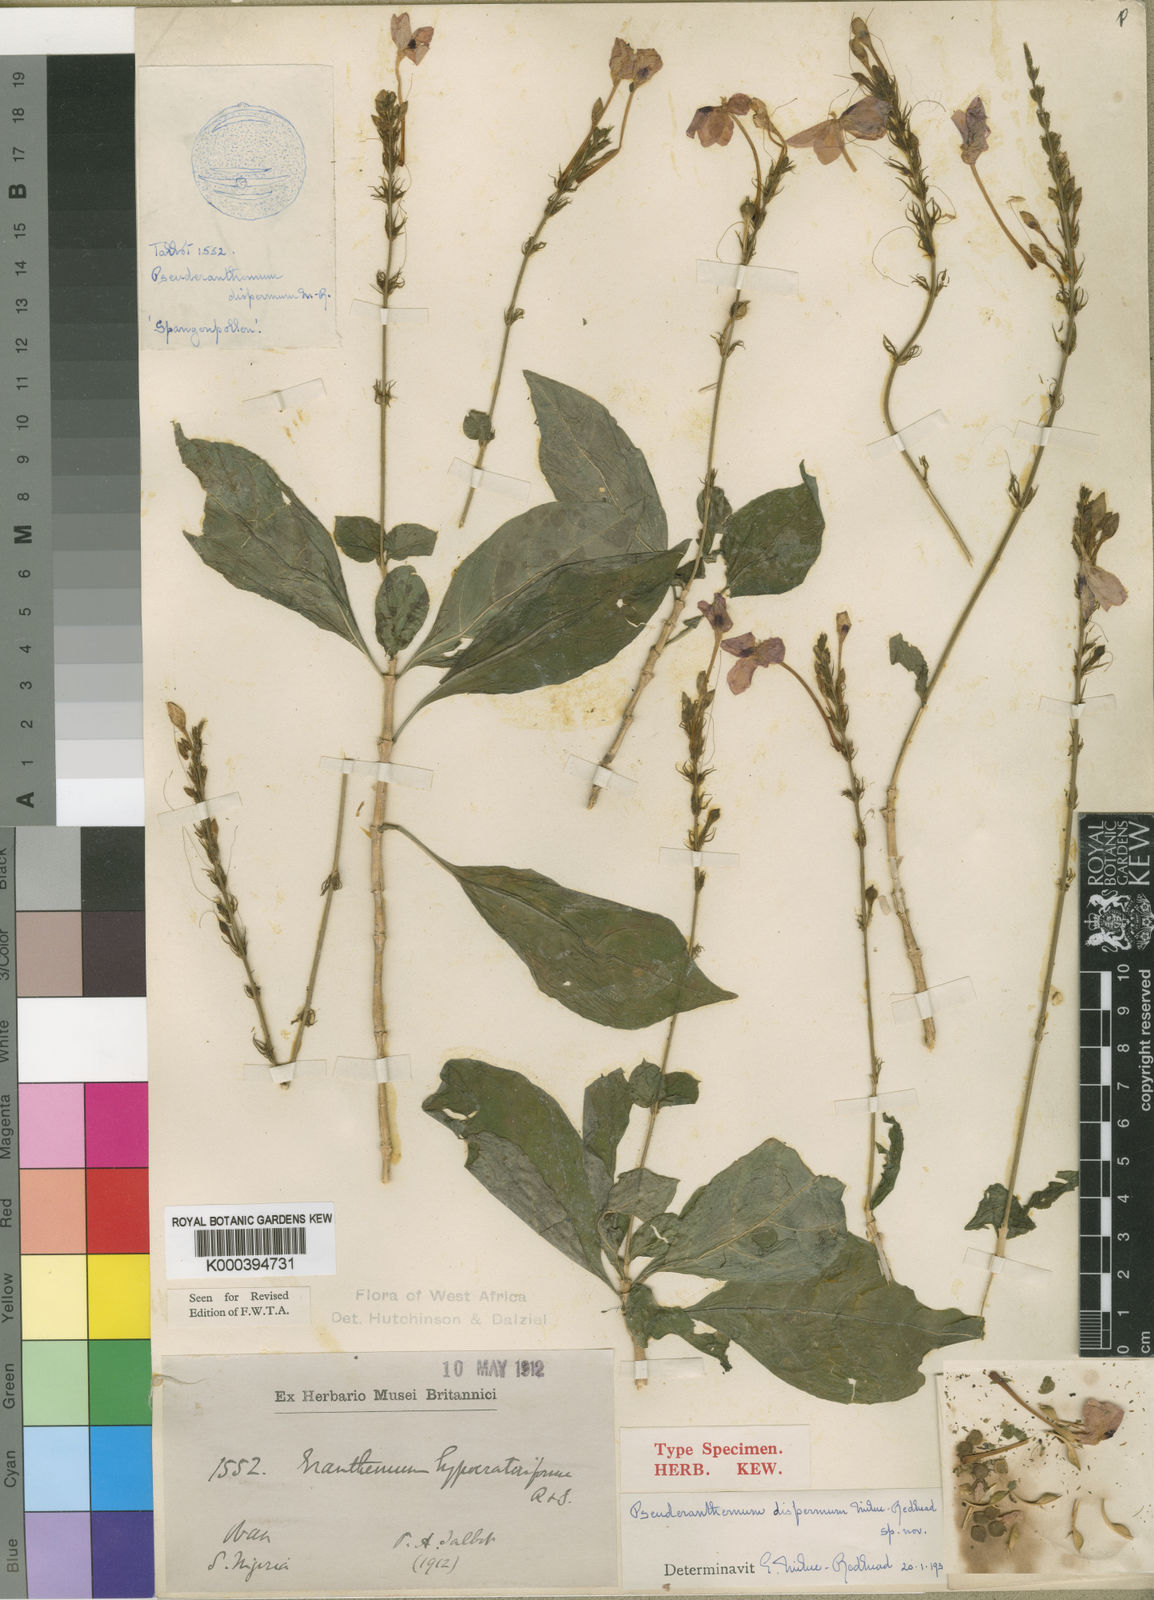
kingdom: Plantae
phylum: Tracheophyta
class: Magnoliopsida
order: Lamiales
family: Acanthaceae
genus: Pseuderanthemum
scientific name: Pseuderanthemum dispermum
